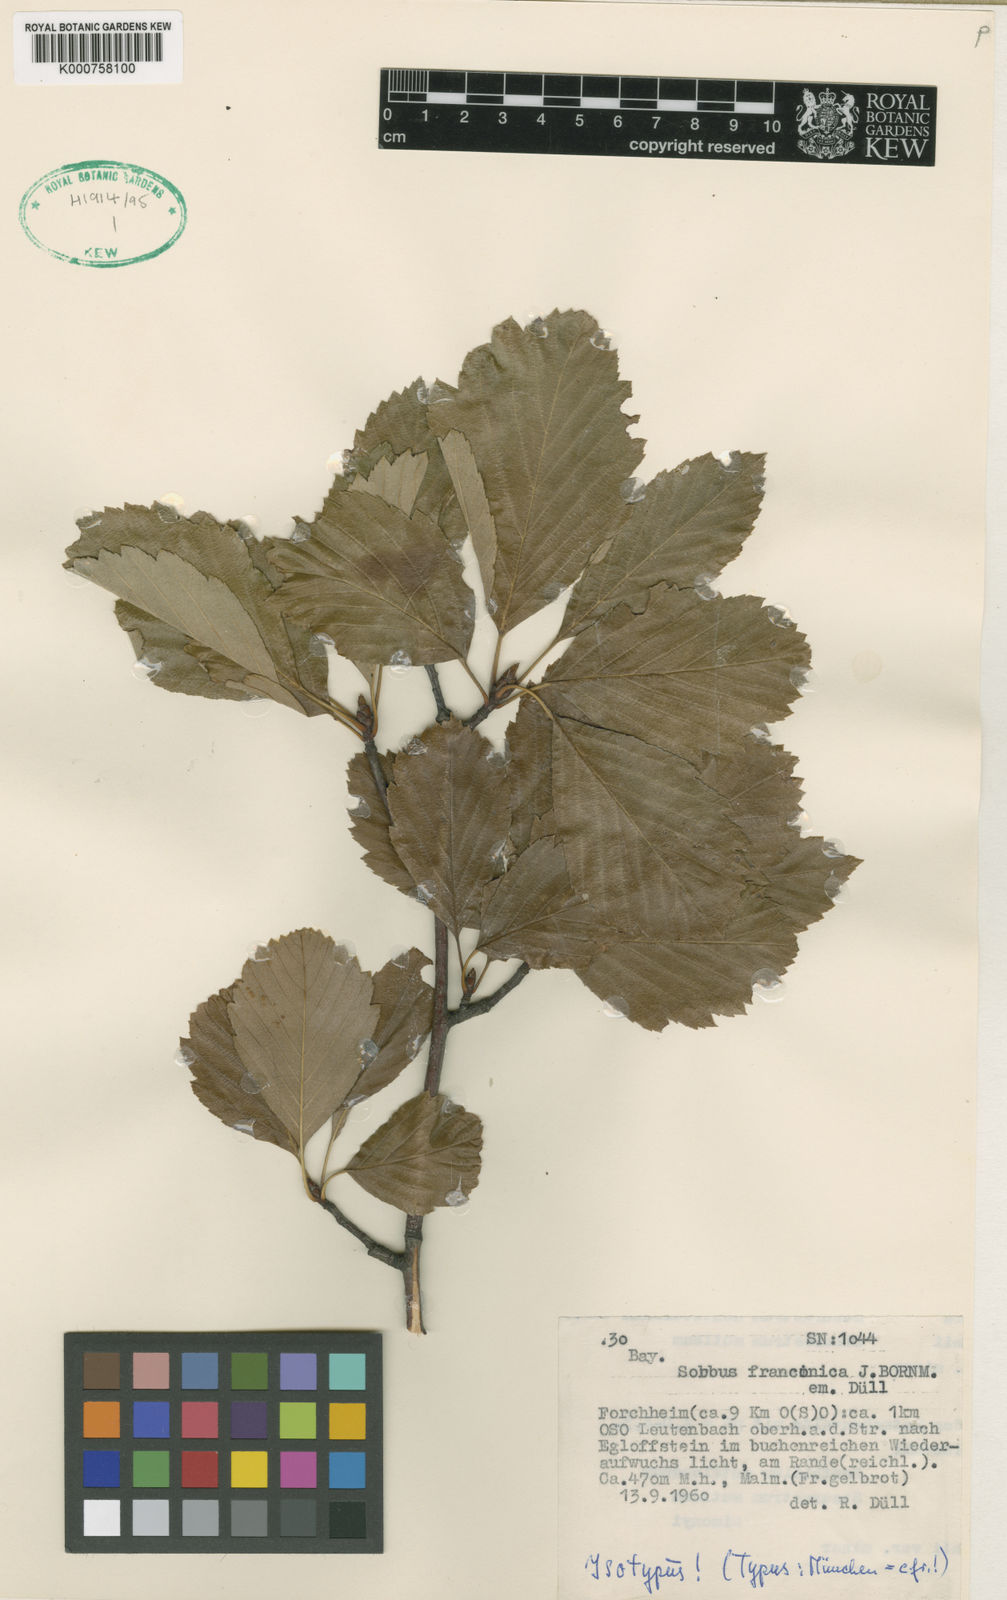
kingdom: Plantae
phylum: Tracheophyta
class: Magnoliopsida
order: Rosales
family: Rosaceae
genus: Sorbus
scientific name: Sorbus
